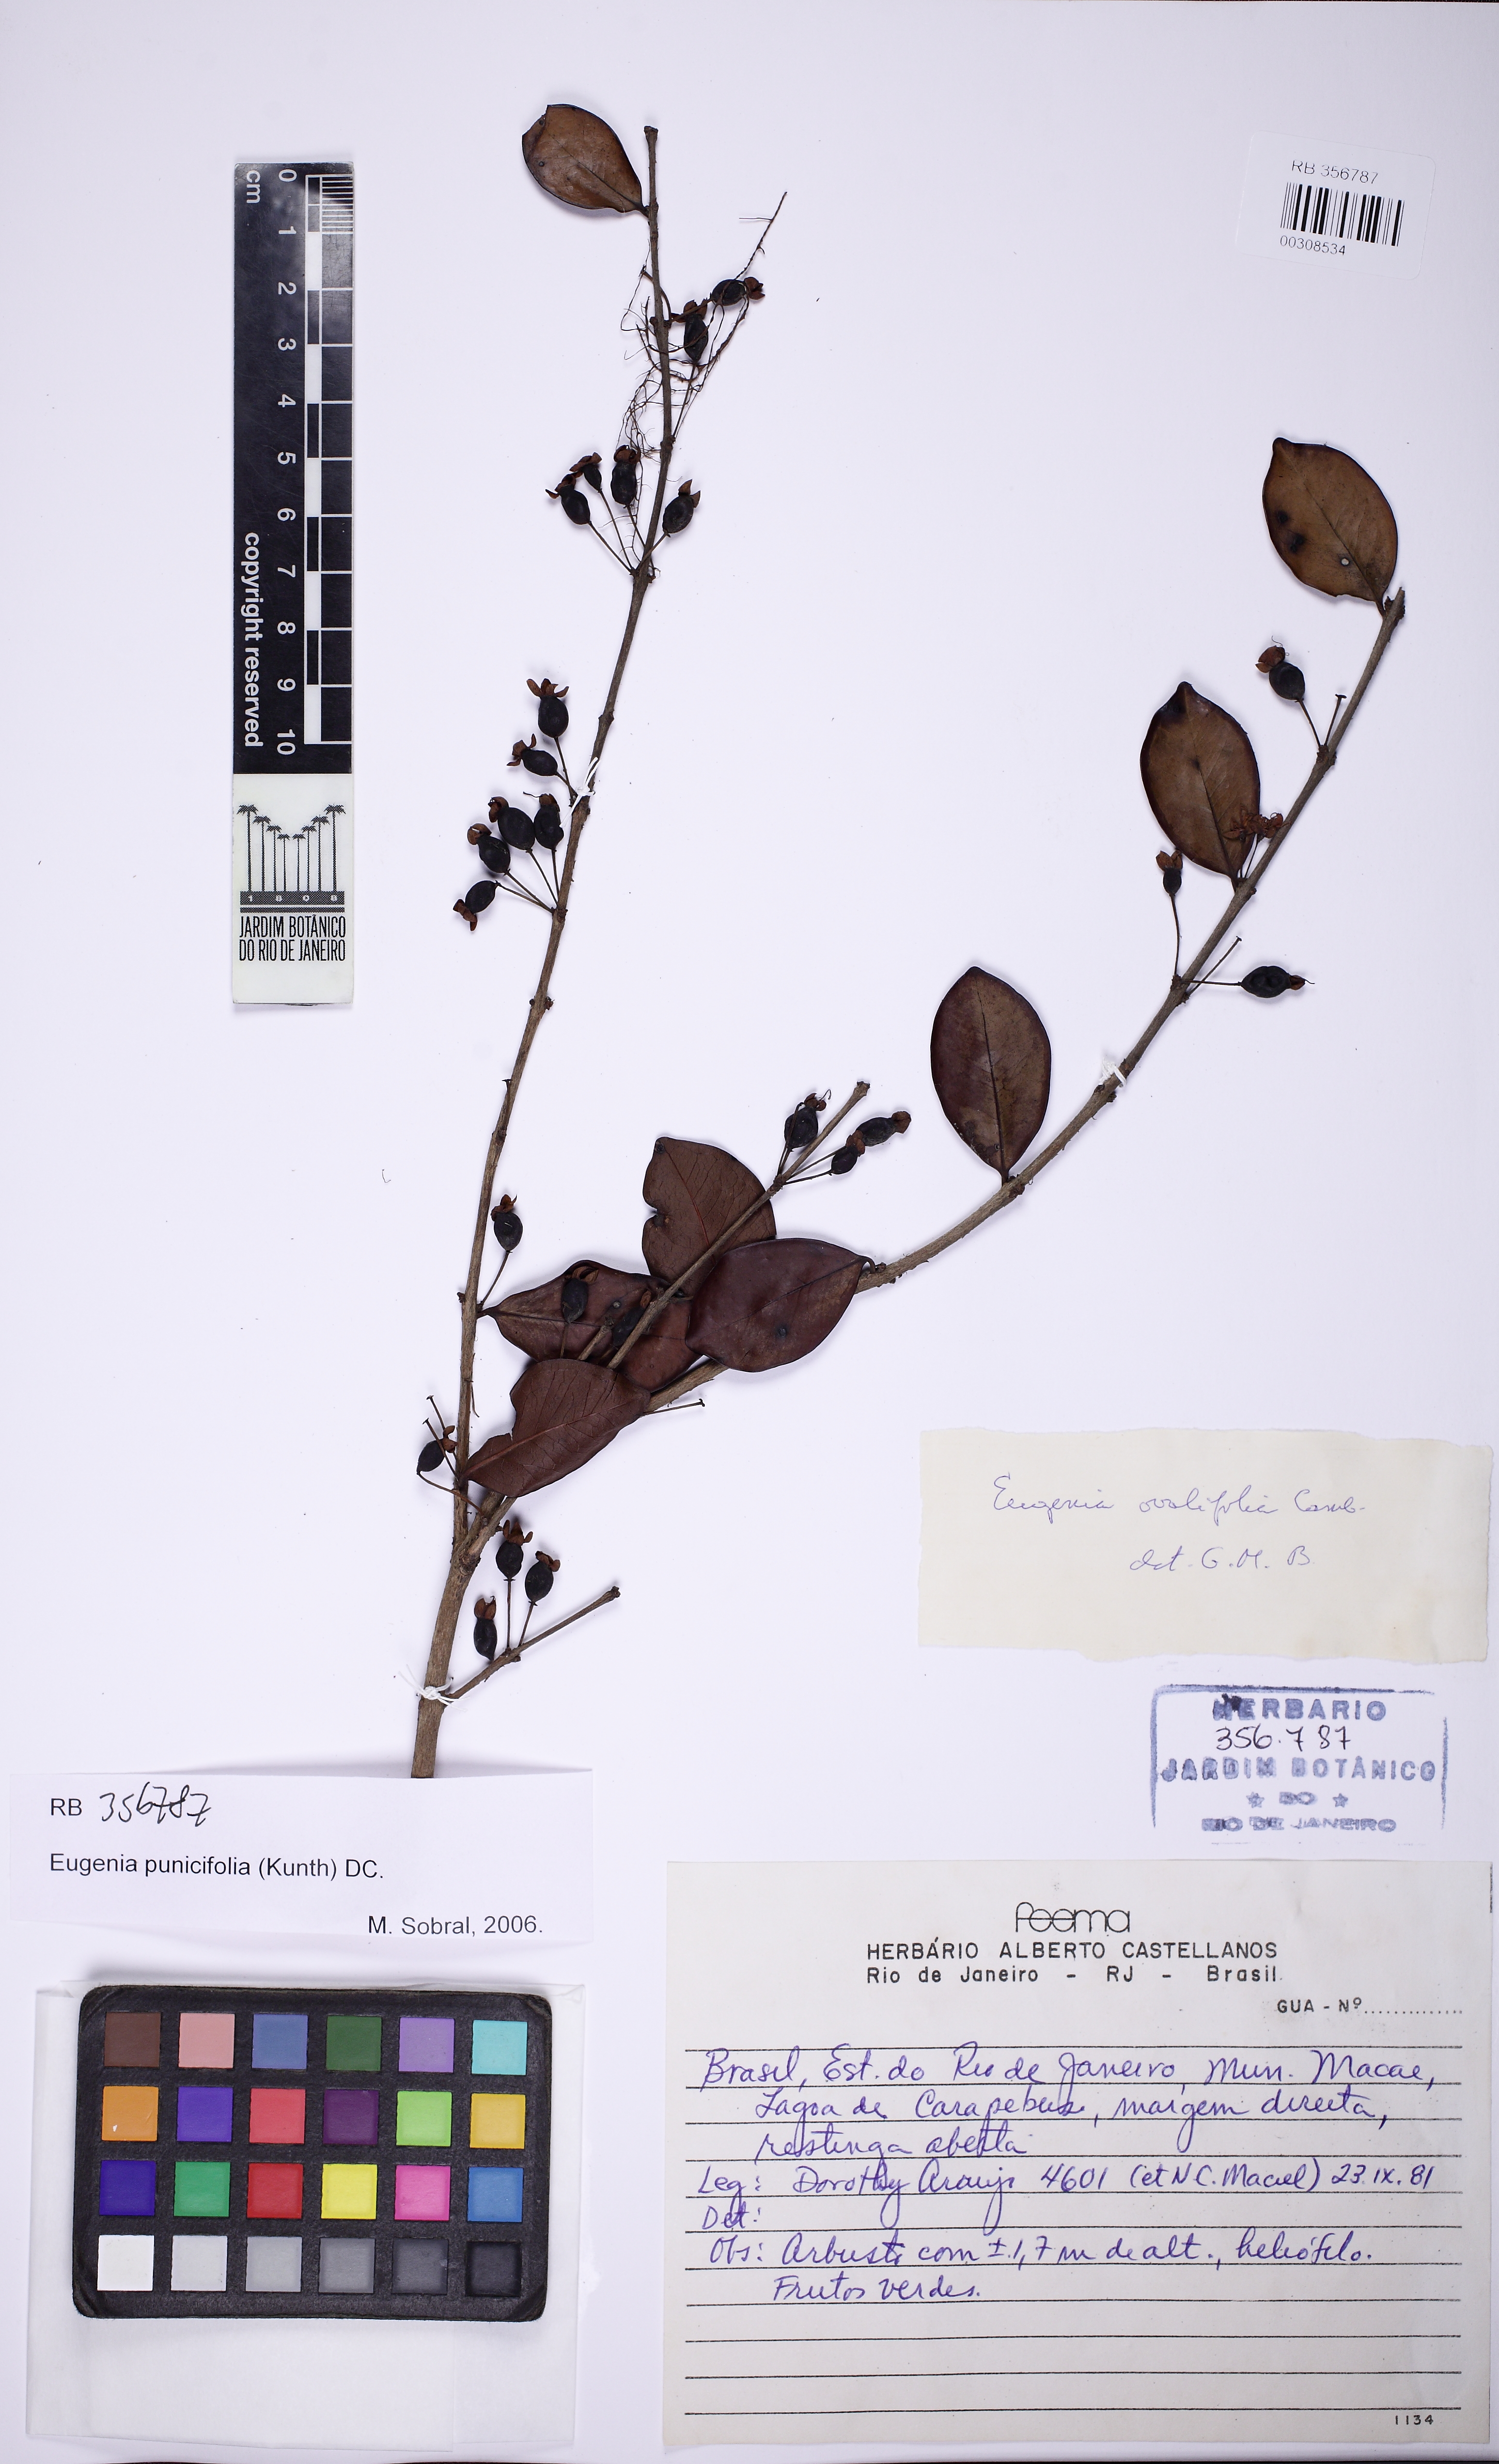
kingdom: Plantae
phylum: Tracheophyta
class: Magnoliopsida
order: Myrtales
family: Myrtaceae
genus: Eugenia
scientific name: Eugenia punicifolia
